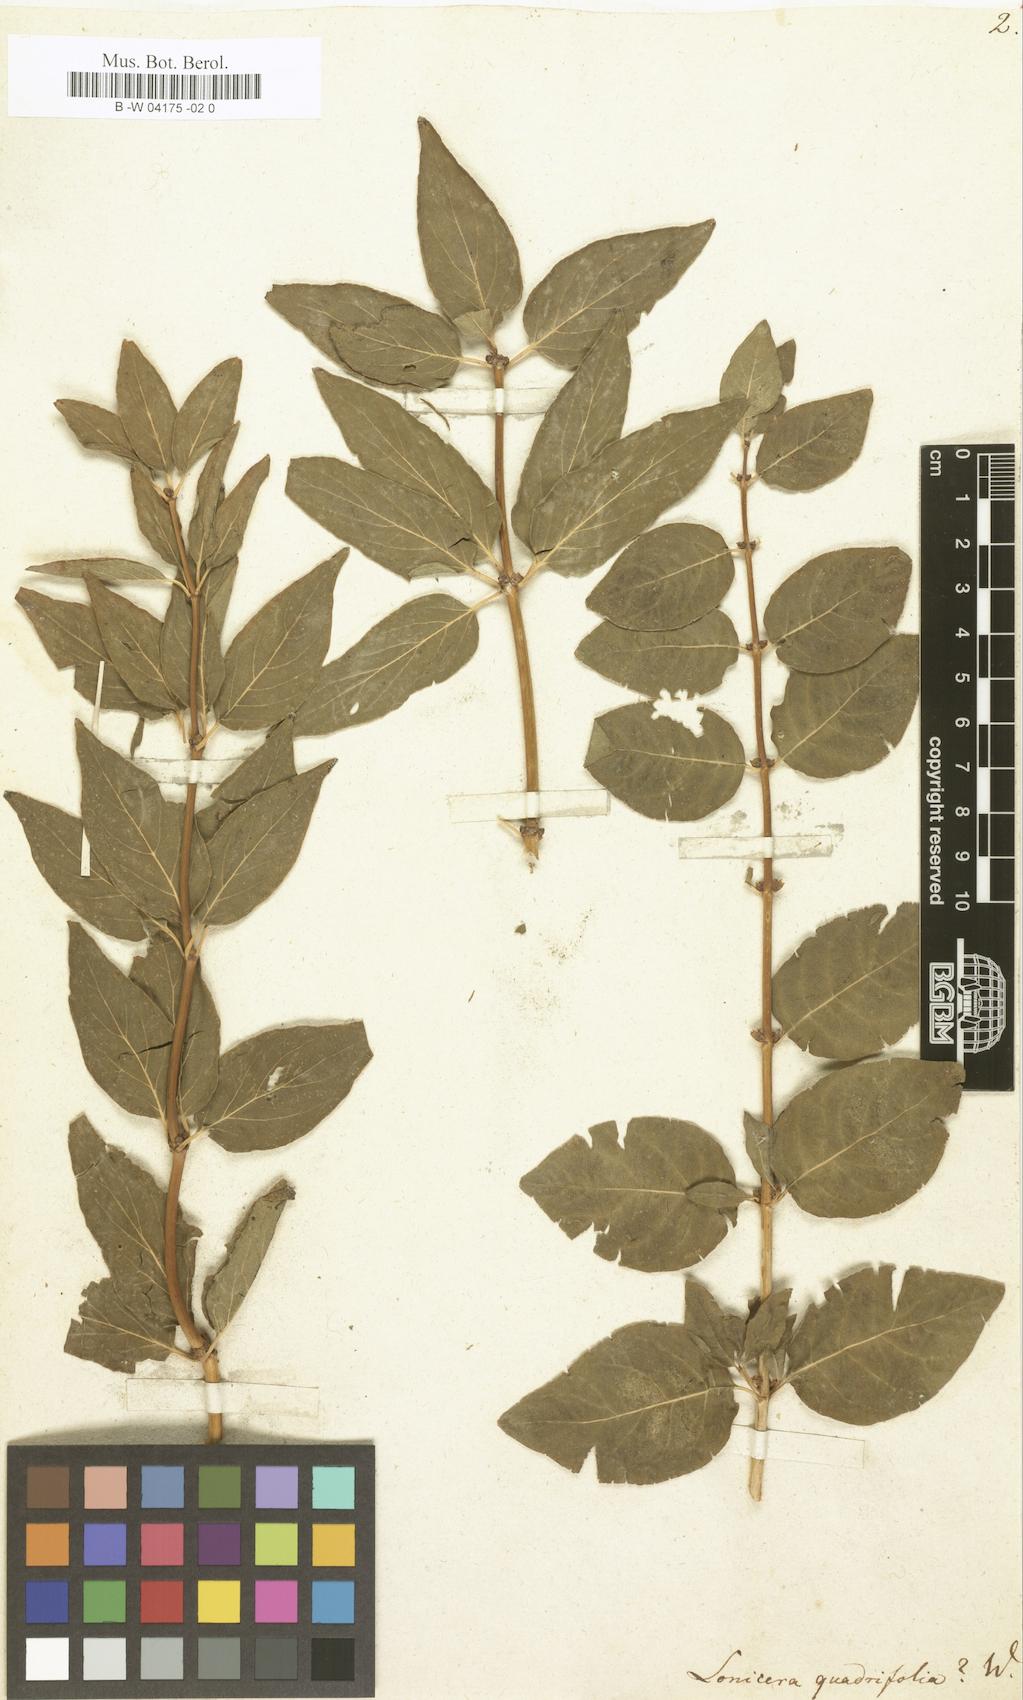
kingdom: Plantae
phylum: Tracheophyta
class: Magnoliopsida
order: Dipsacales
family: Caprifoliaceae
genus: Lonicera
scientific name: Lonicera quadrifolia
